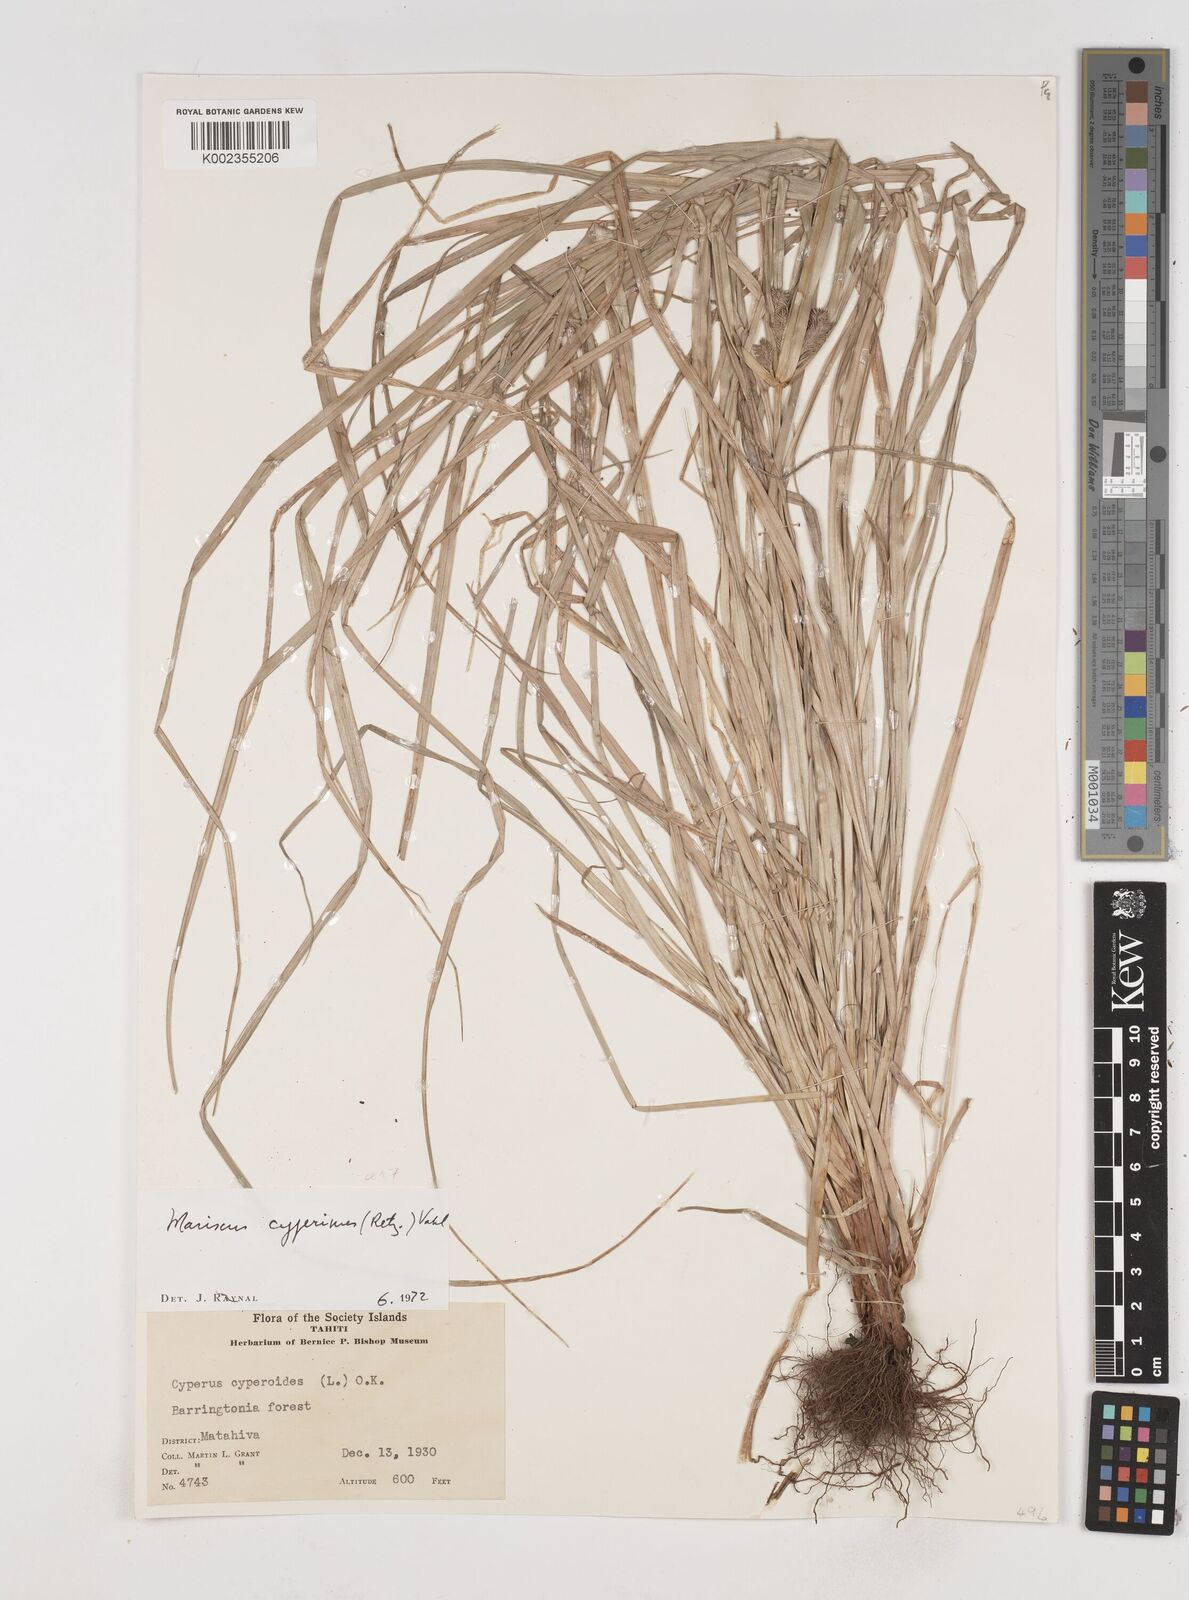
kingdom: Plantae
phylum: Tracheophyta
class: Liliopsida
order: Poales
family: Cyperaceae
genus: Cyperus
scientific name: Cyperus cyperinus
